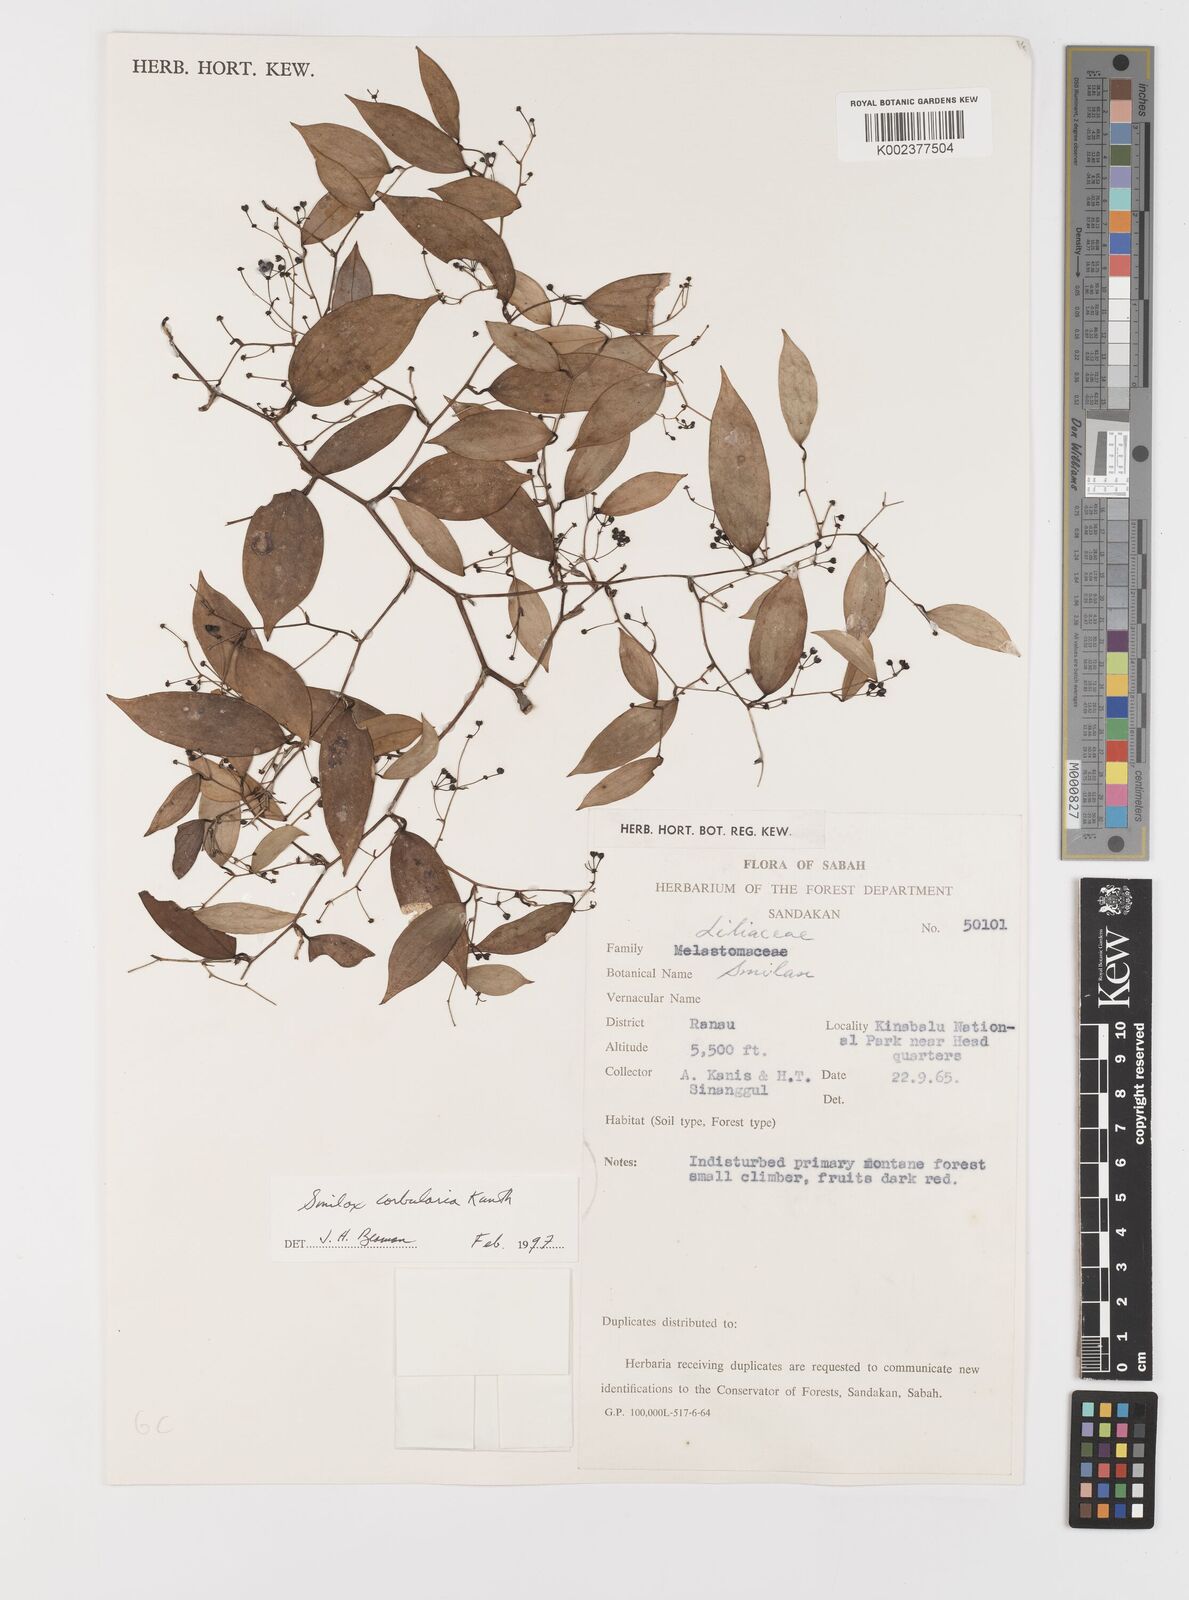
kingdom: Plantae
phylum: Tracheophyta
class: Liliopsida
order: Liliales
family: Smilacaceae
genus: Smilax
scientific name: Smilax corbularia
